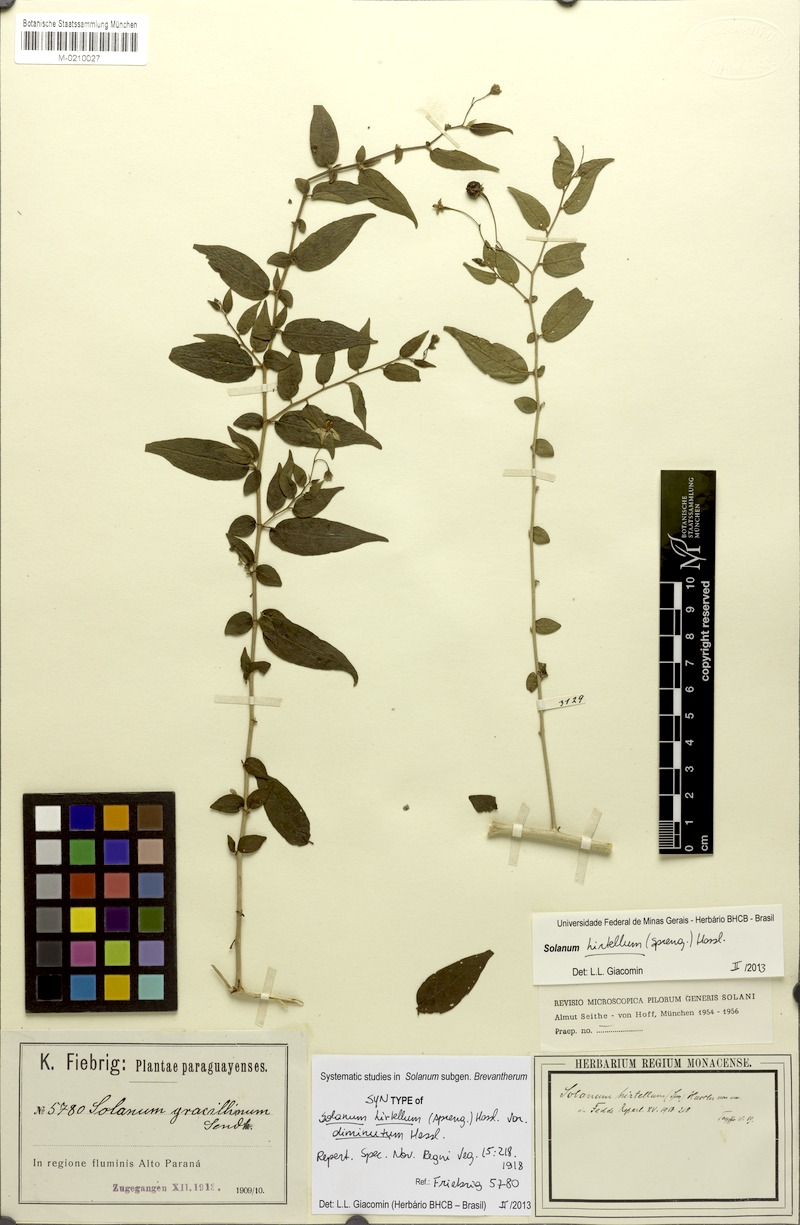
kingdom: Plantae
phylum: Tracheophyta
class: Magnoliopsida
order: Solanales
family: Solanaceae
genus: Solanum
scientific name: Solanum hirtellum
